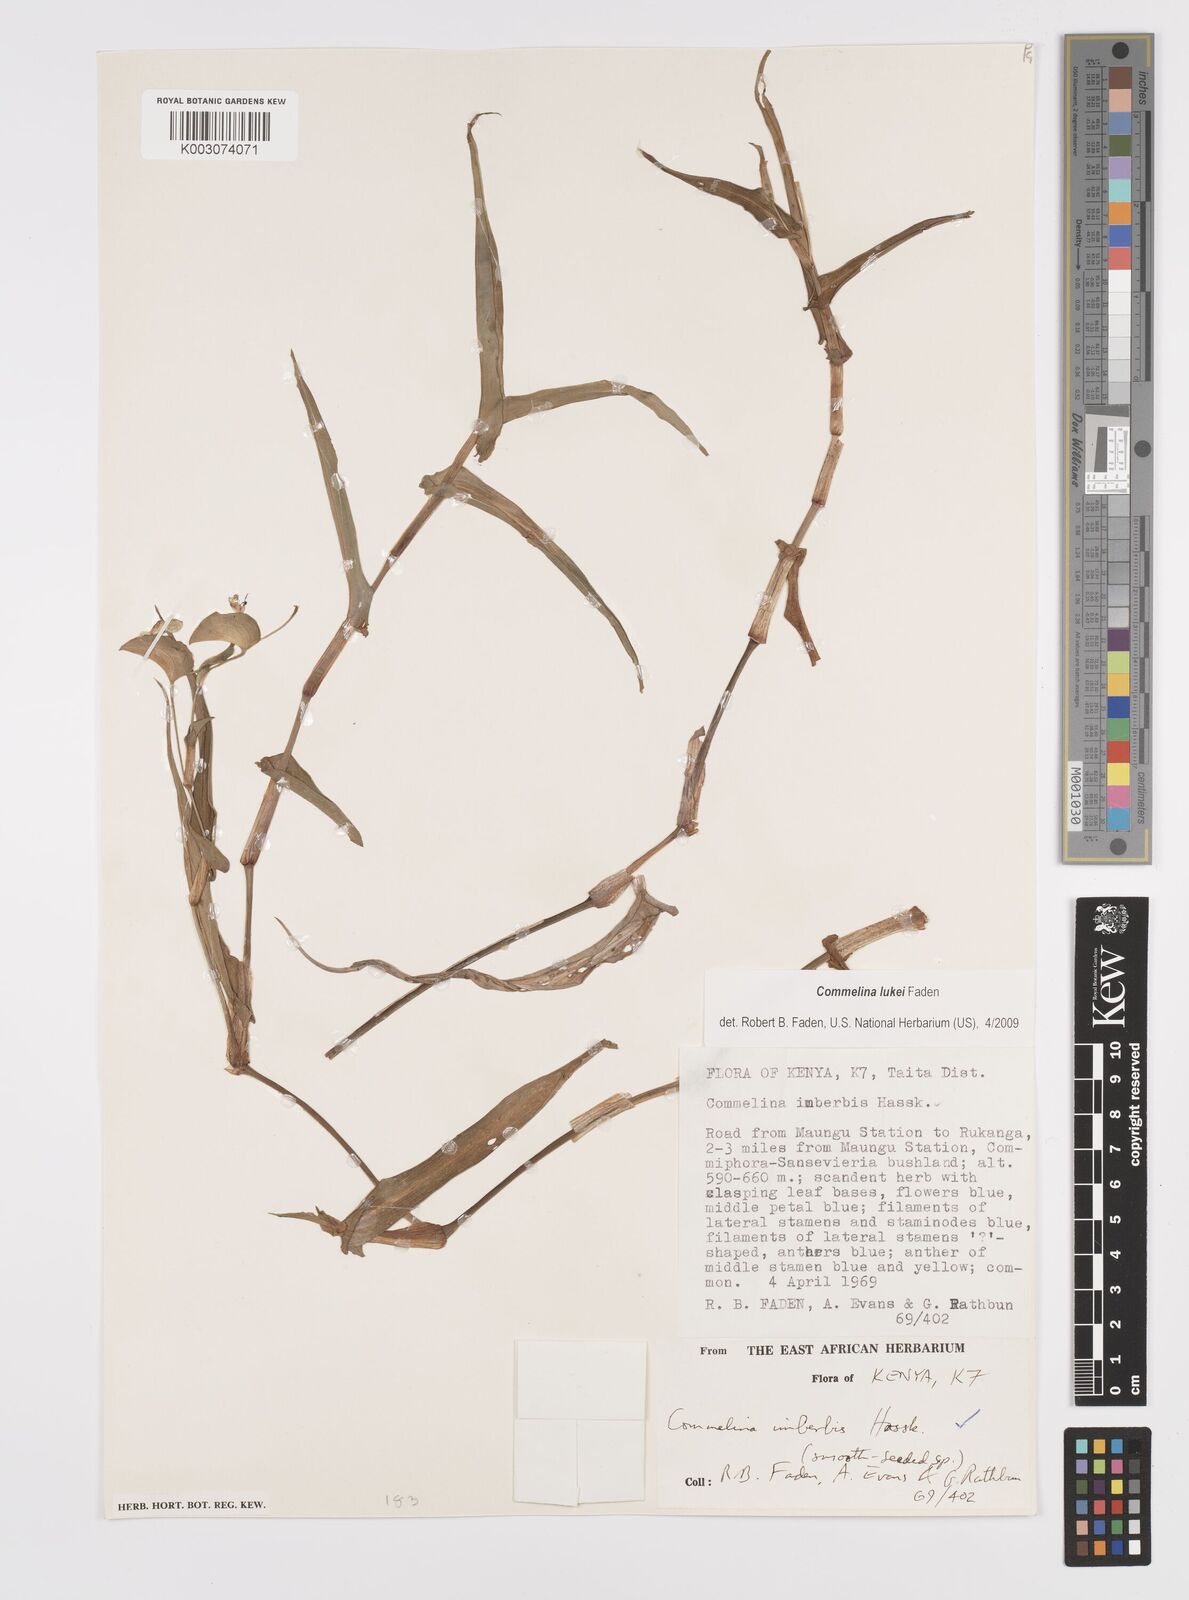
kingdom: Plantae
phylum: Tracheophyta
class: Liliopsida
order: Commelinales
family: Commelinaceae
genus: Commelina
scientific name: Commelina lukei
